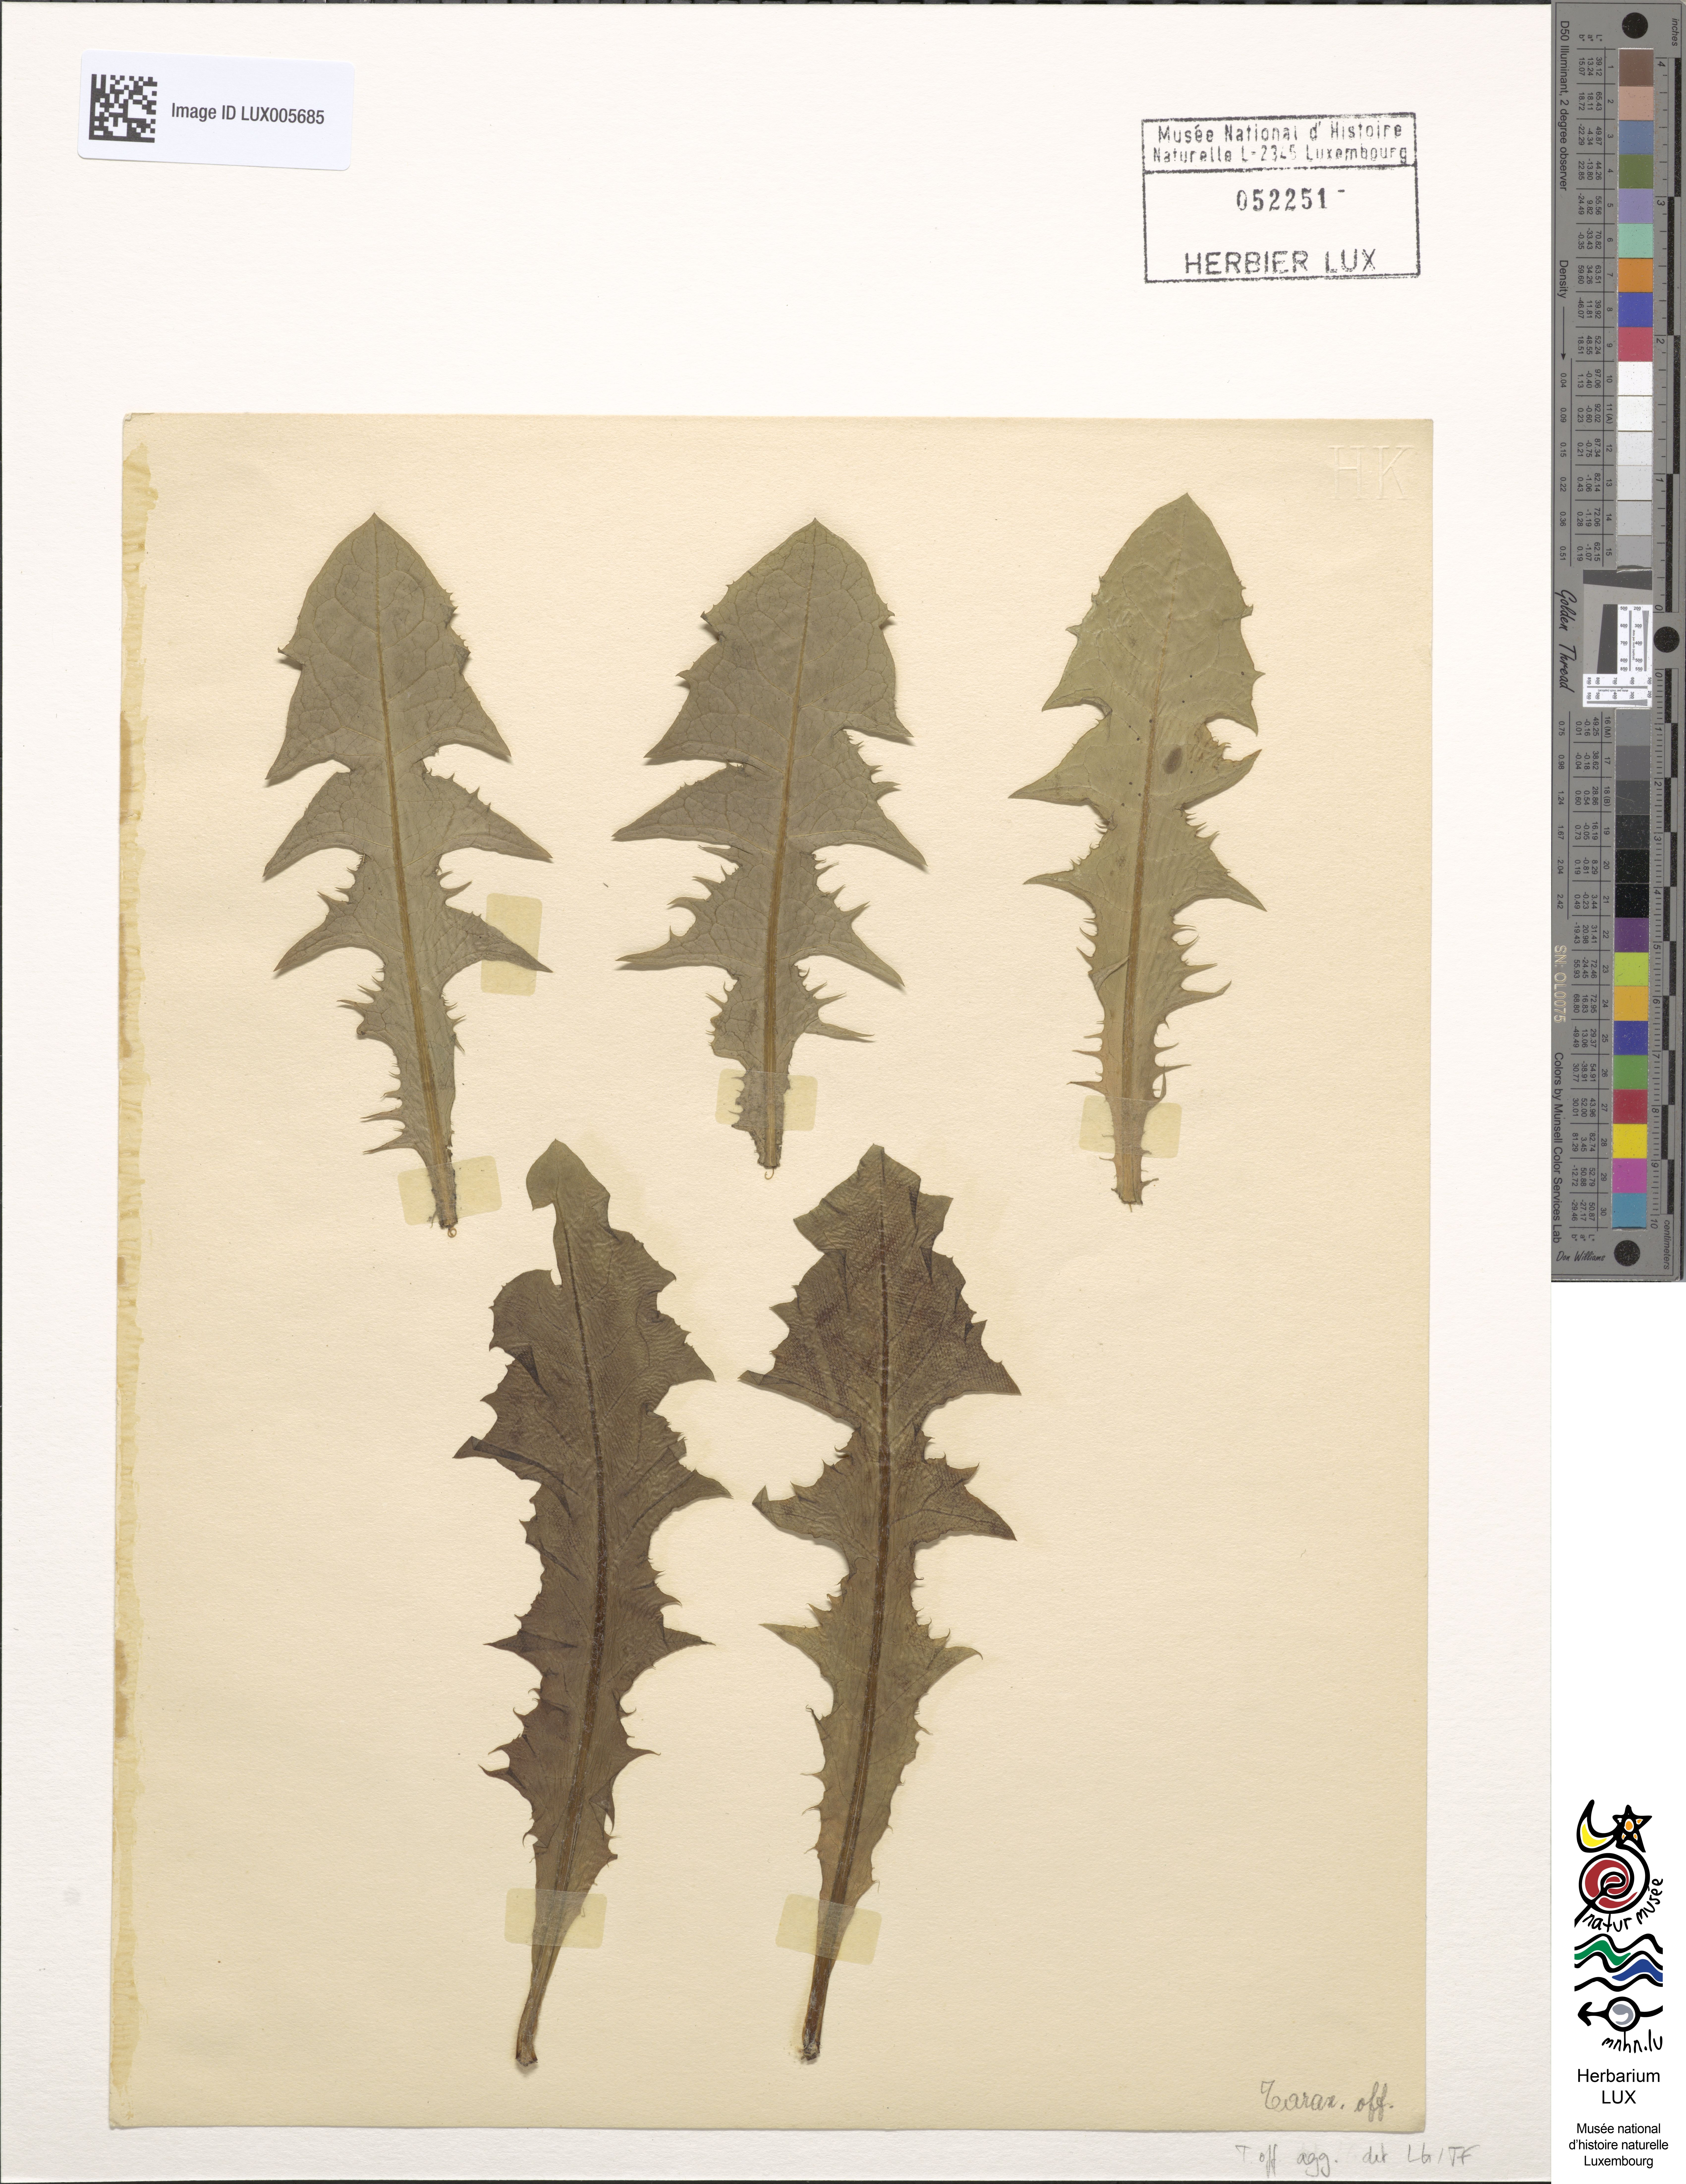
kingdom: Plantae
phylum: Tracheophyta
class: Magnoliopsida
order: Asterales
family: Asteraceae
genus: Taraxacum
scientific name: Taraxacum
